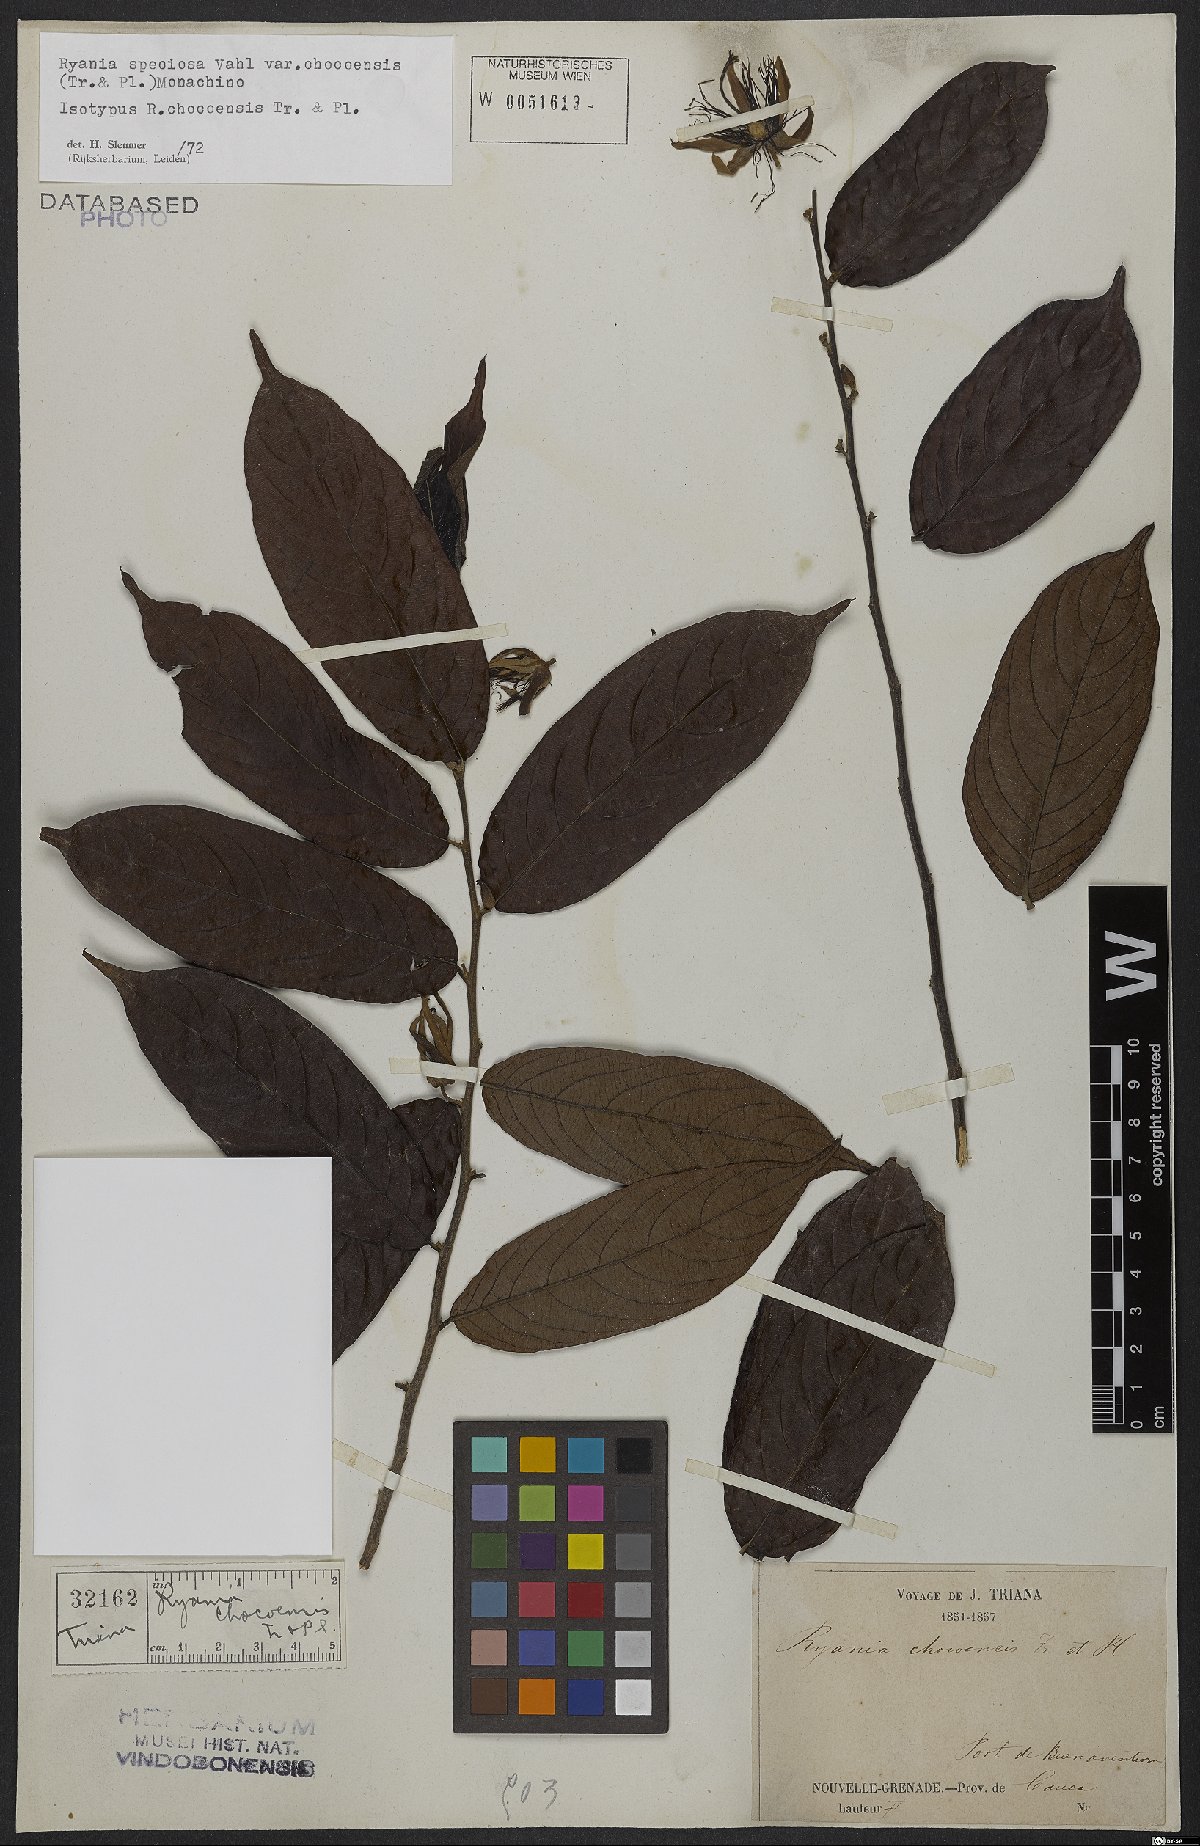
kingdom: Plantae
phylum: Tracheophyta
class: Magnoliopsida
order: Malpighiales
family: Salicaceae
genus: Ryania
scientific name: Ryania speciosa
